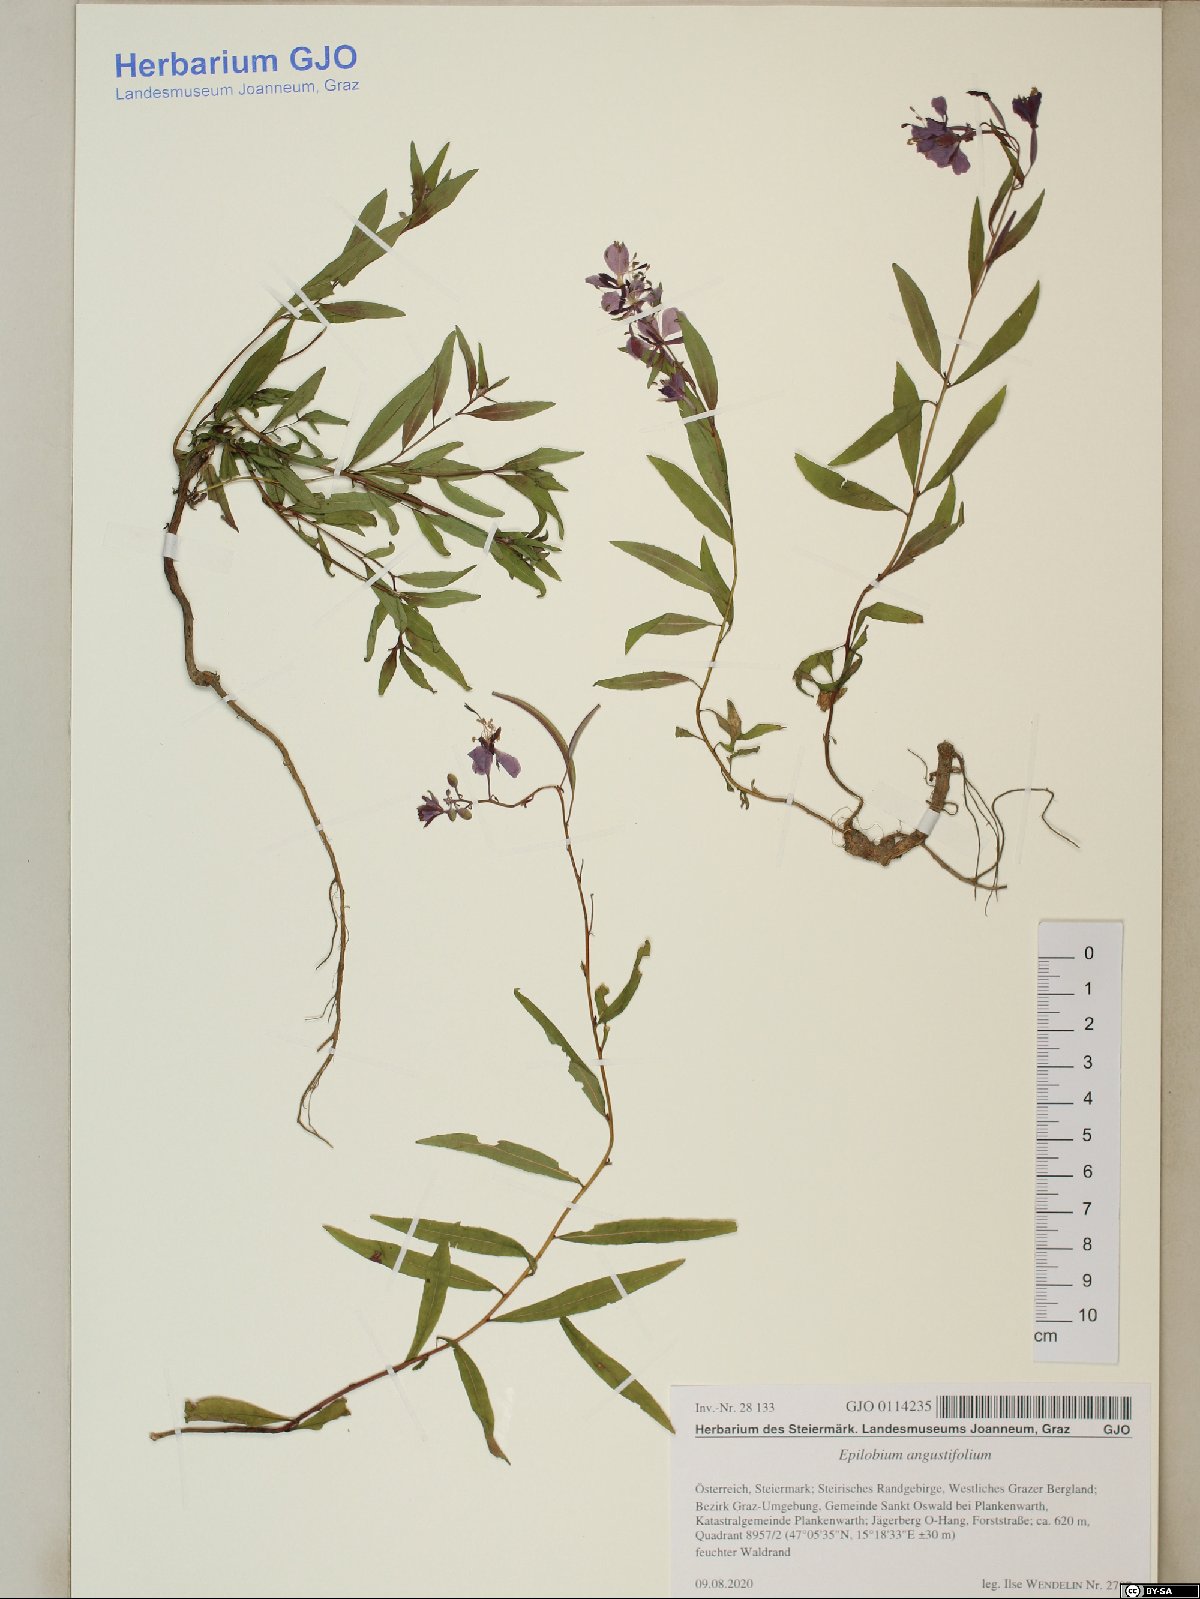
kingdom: Plantae
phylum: Tracheophyta
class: Magnoliopsida
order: Myrtales
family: Onagraceae
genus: Chamaenerion
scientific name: Chamaenerion angustifolium
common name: Fireweed
